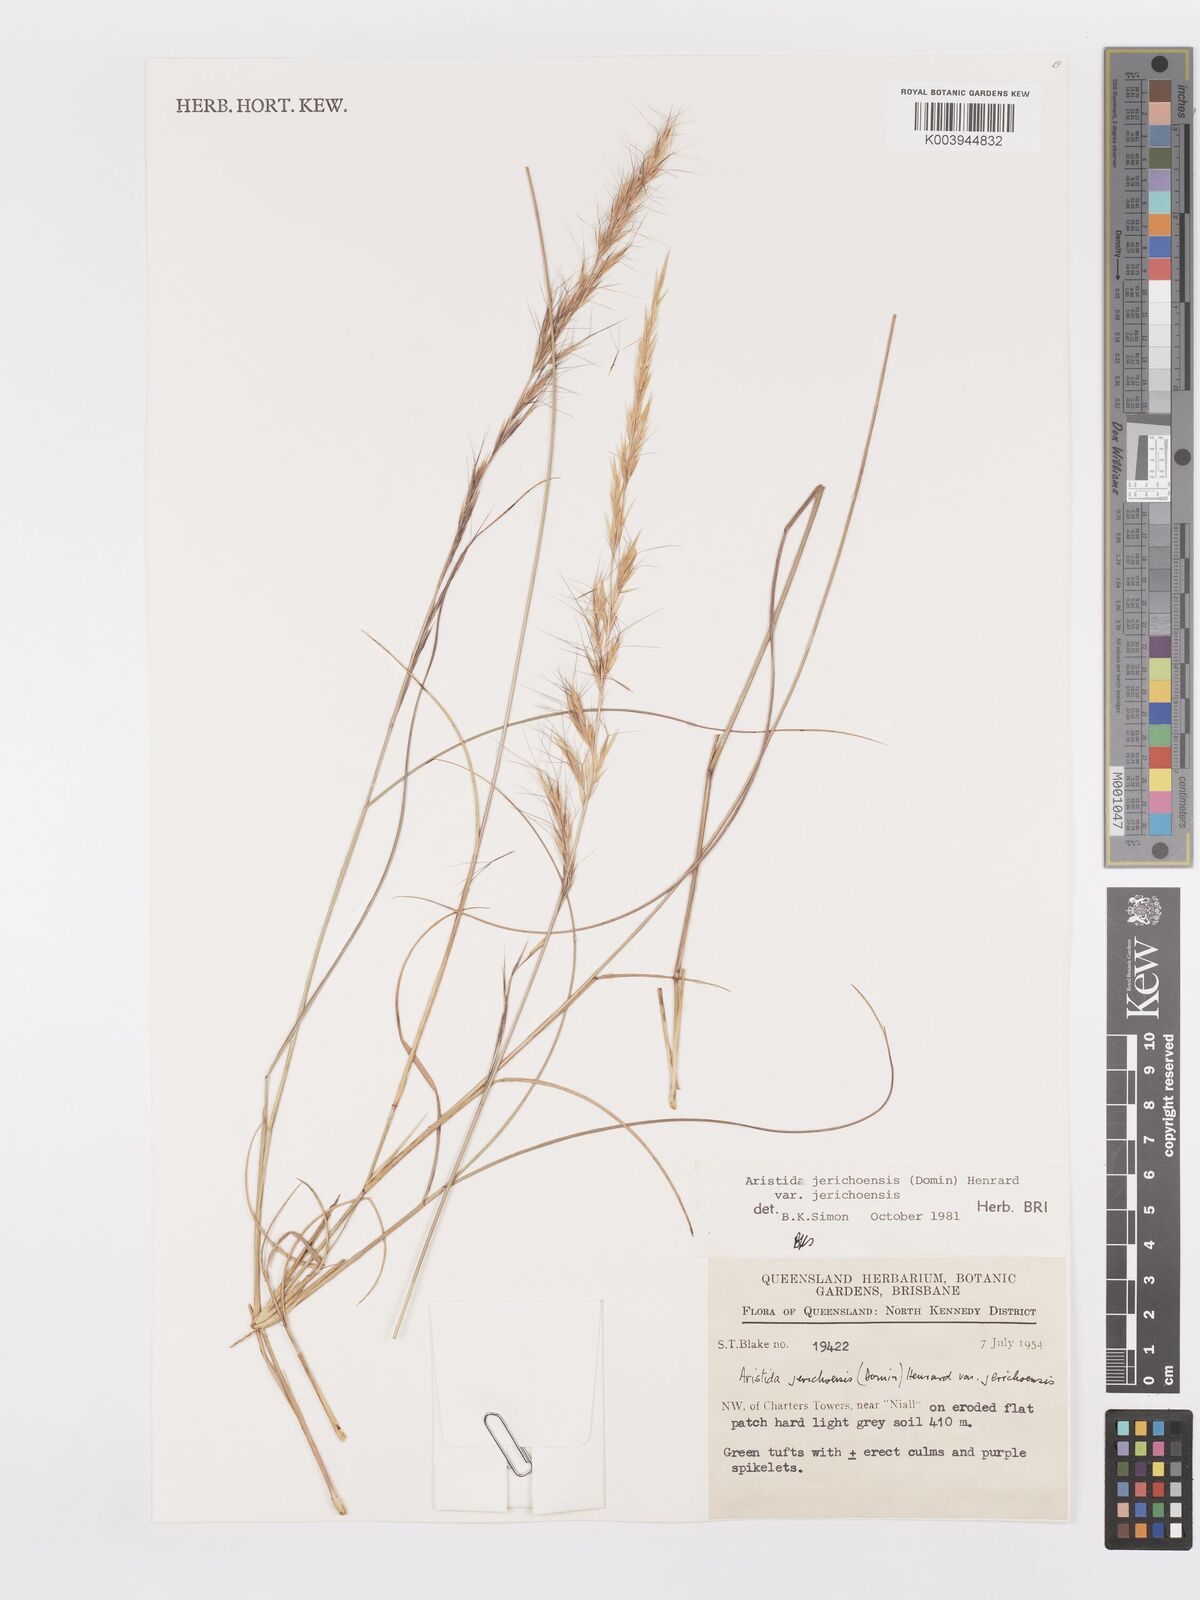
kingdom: Plantae
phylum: Tracheophyta
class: Liliopsida
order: Poales
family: Poaceae
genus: Aristida
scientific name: Aristida jerichoensis
